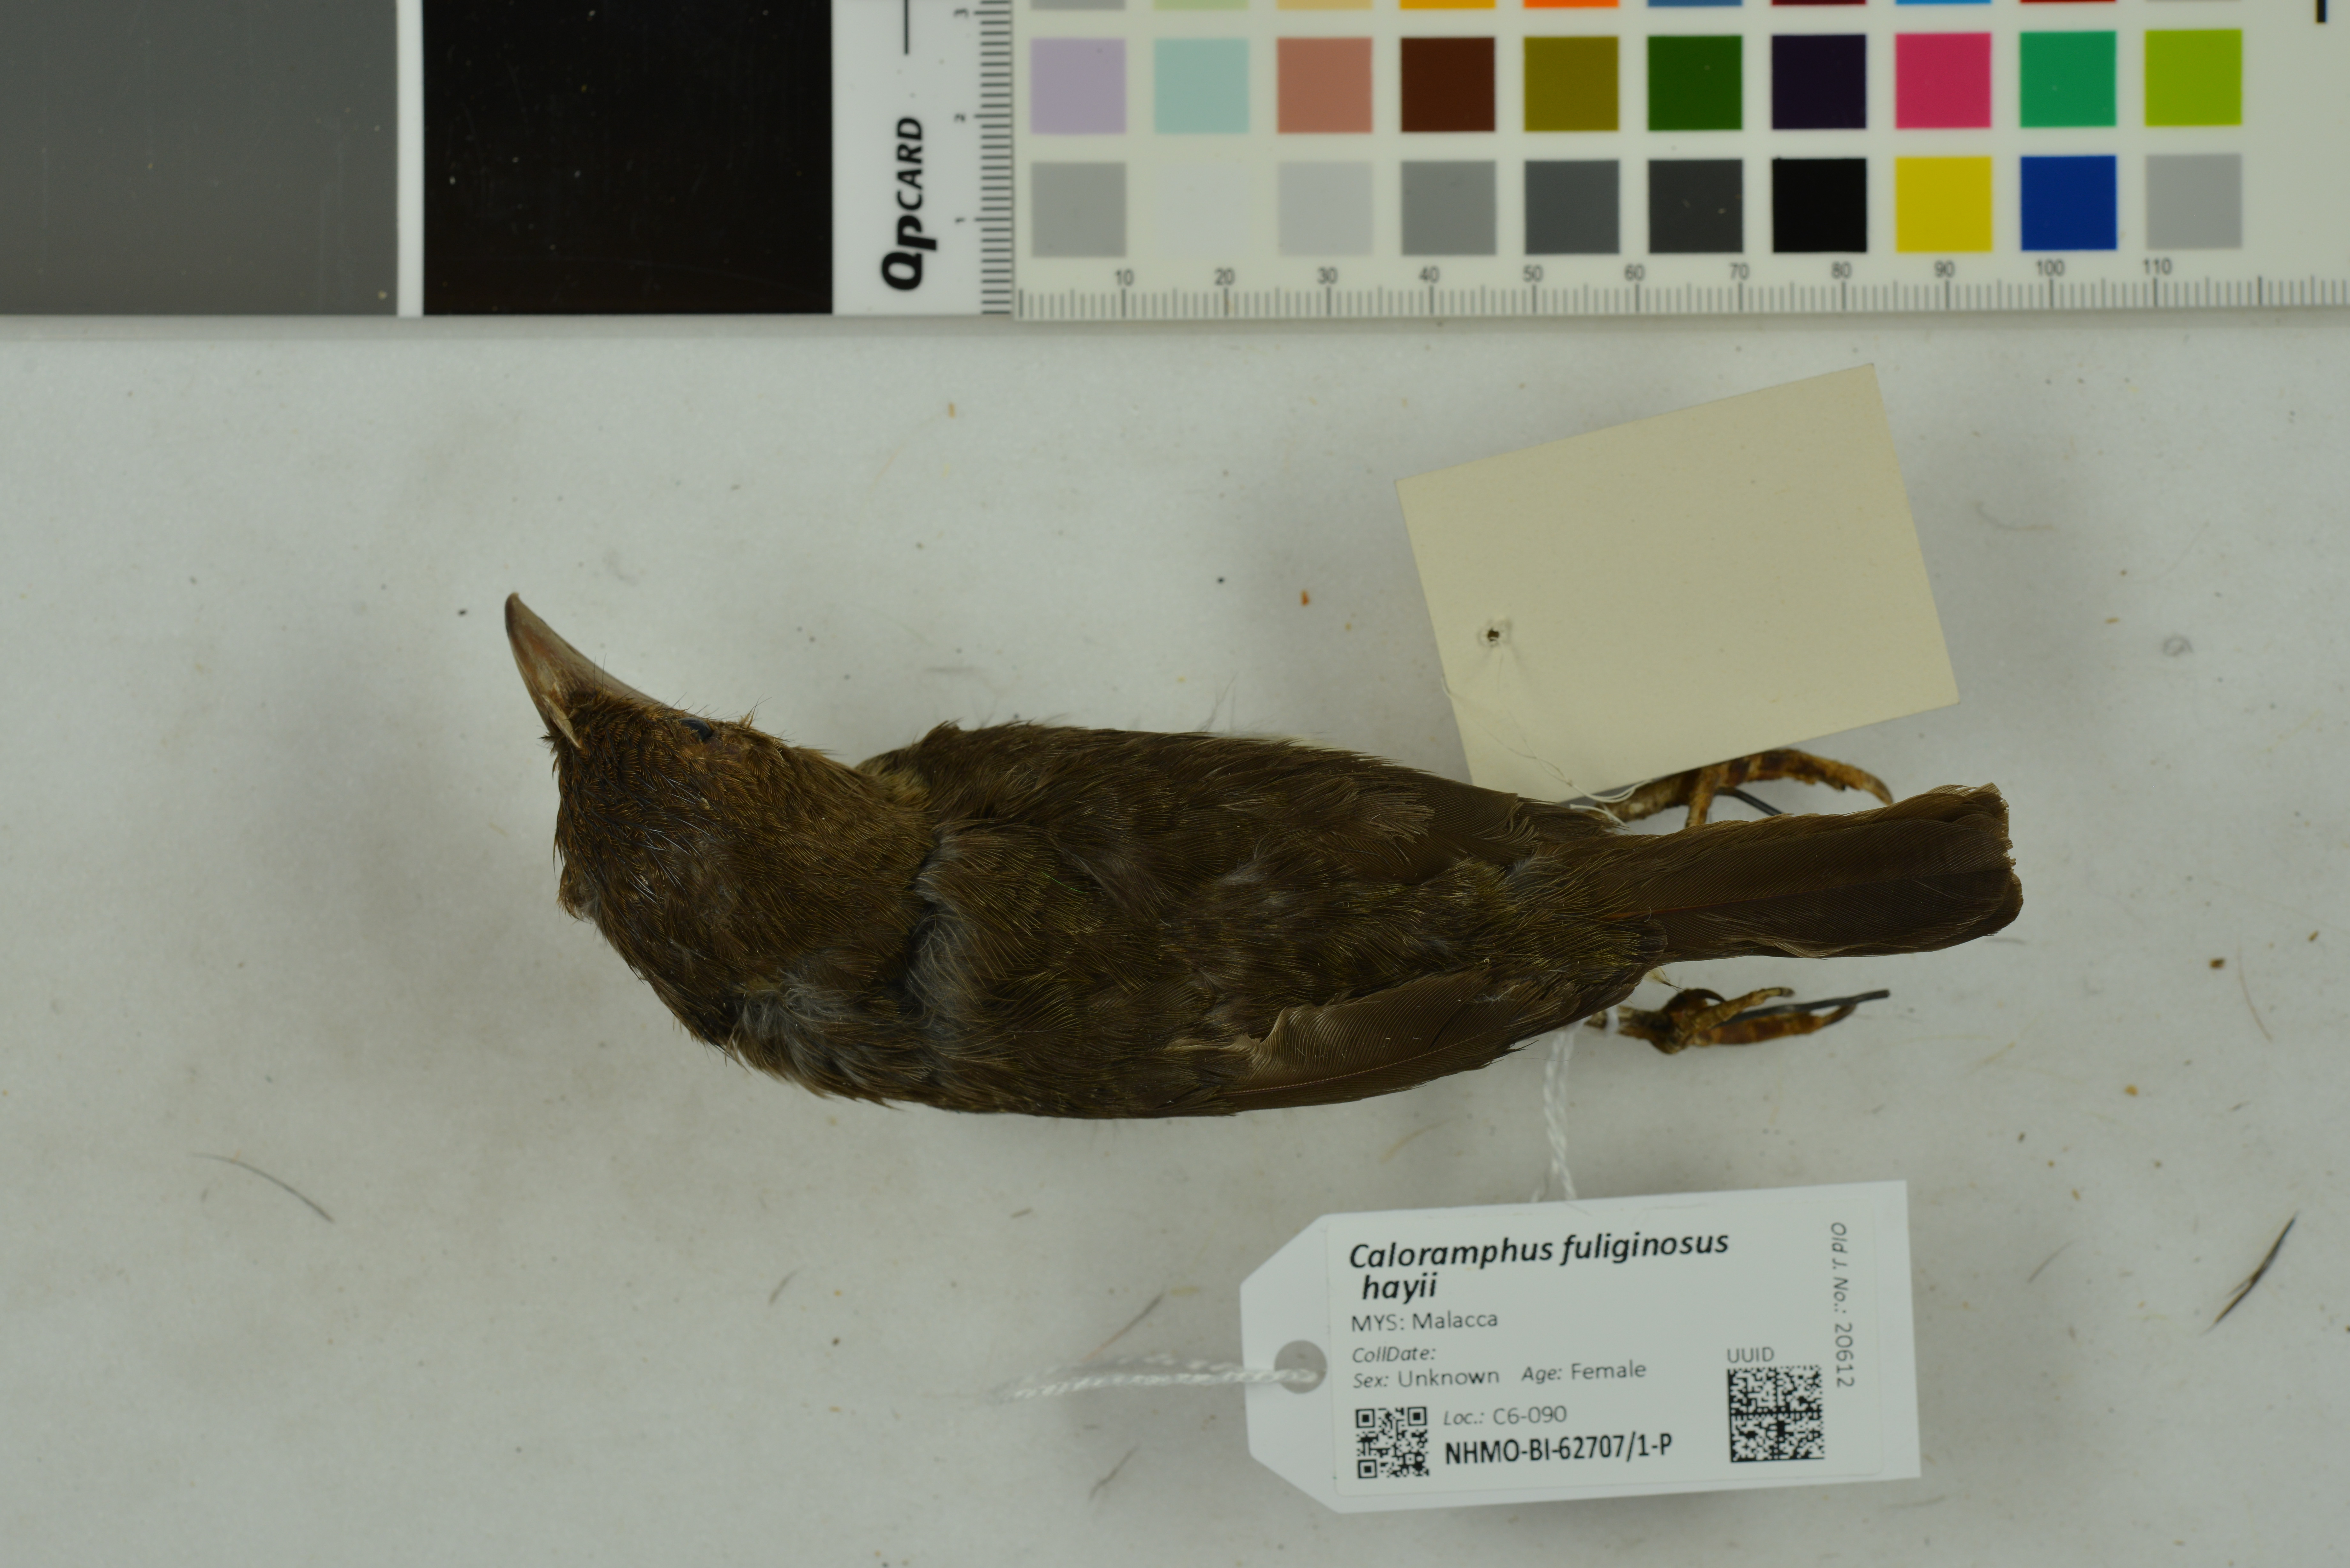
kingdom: Animalia
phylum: Chordata
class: Aves
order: Piciformes
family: Megalaimidae
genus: Caloramphus
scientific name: Caloramphus hayii
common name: Sooty barbet
